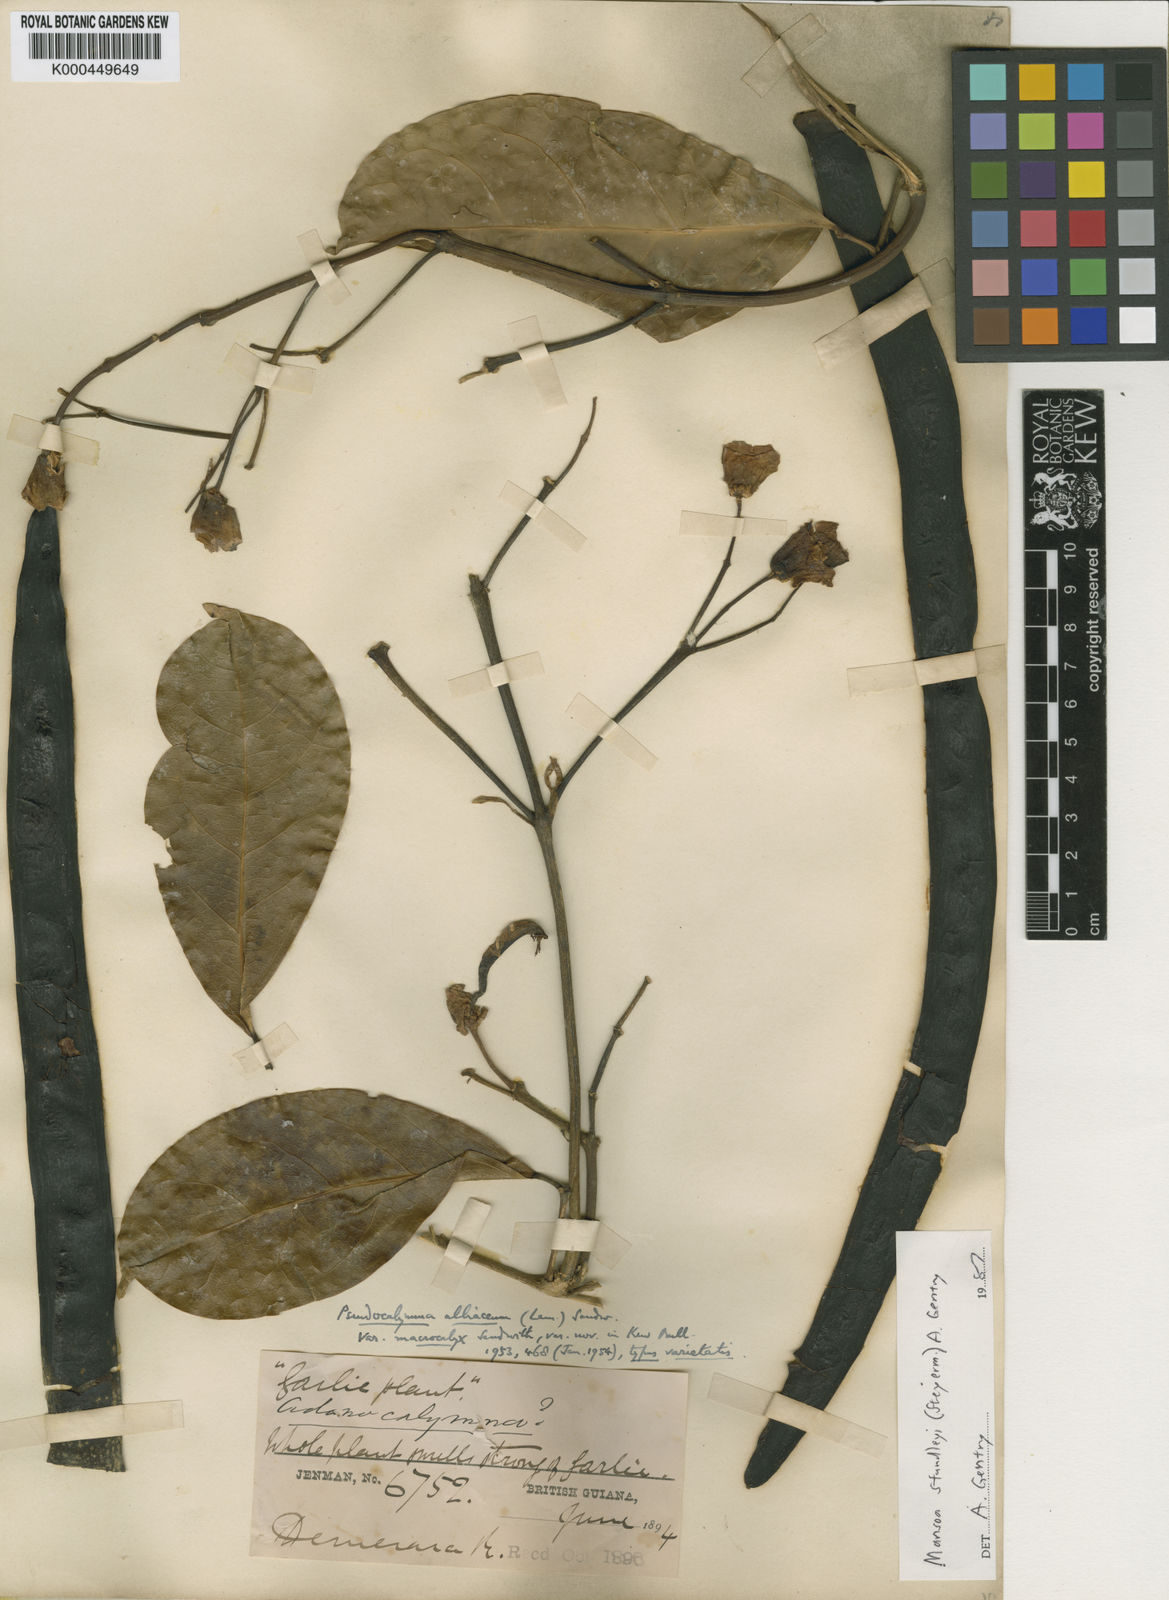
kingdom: Plantae
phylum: Tracheophyta
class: Magnoliopsida
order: Lamiales
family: Bignoniaceae
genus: Mansoa
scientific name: Mansoa standleyi
